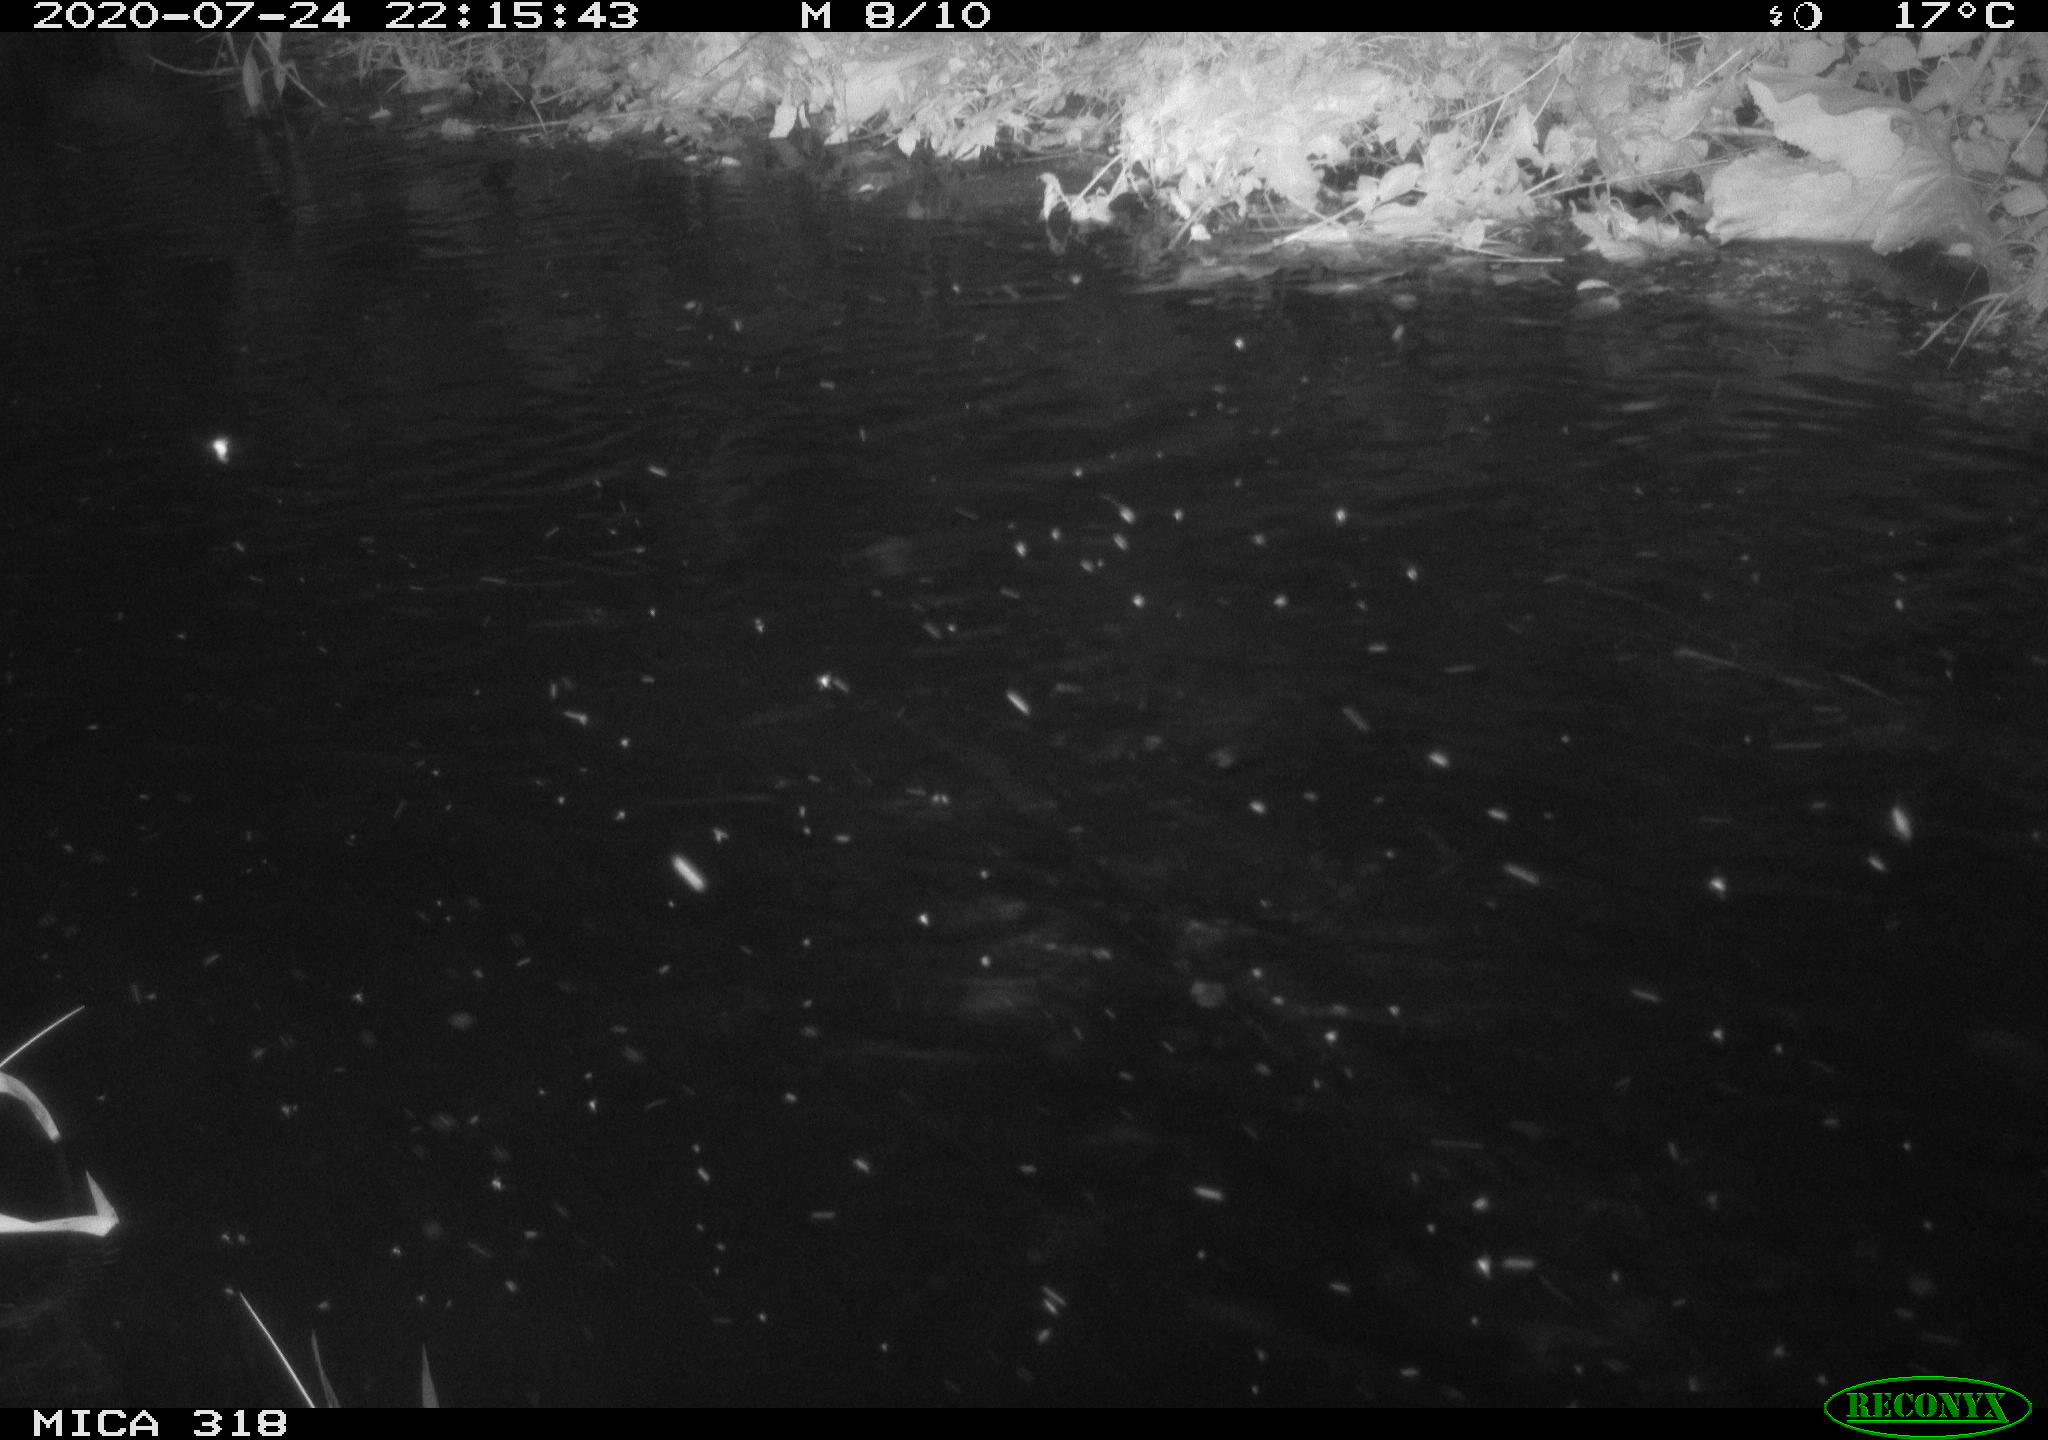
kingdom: Animalia
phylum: Chordata
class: Aves
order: Anseriformes
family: Anatidae
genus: Anas
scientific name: Anas platyrhynchos
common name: Mallard
